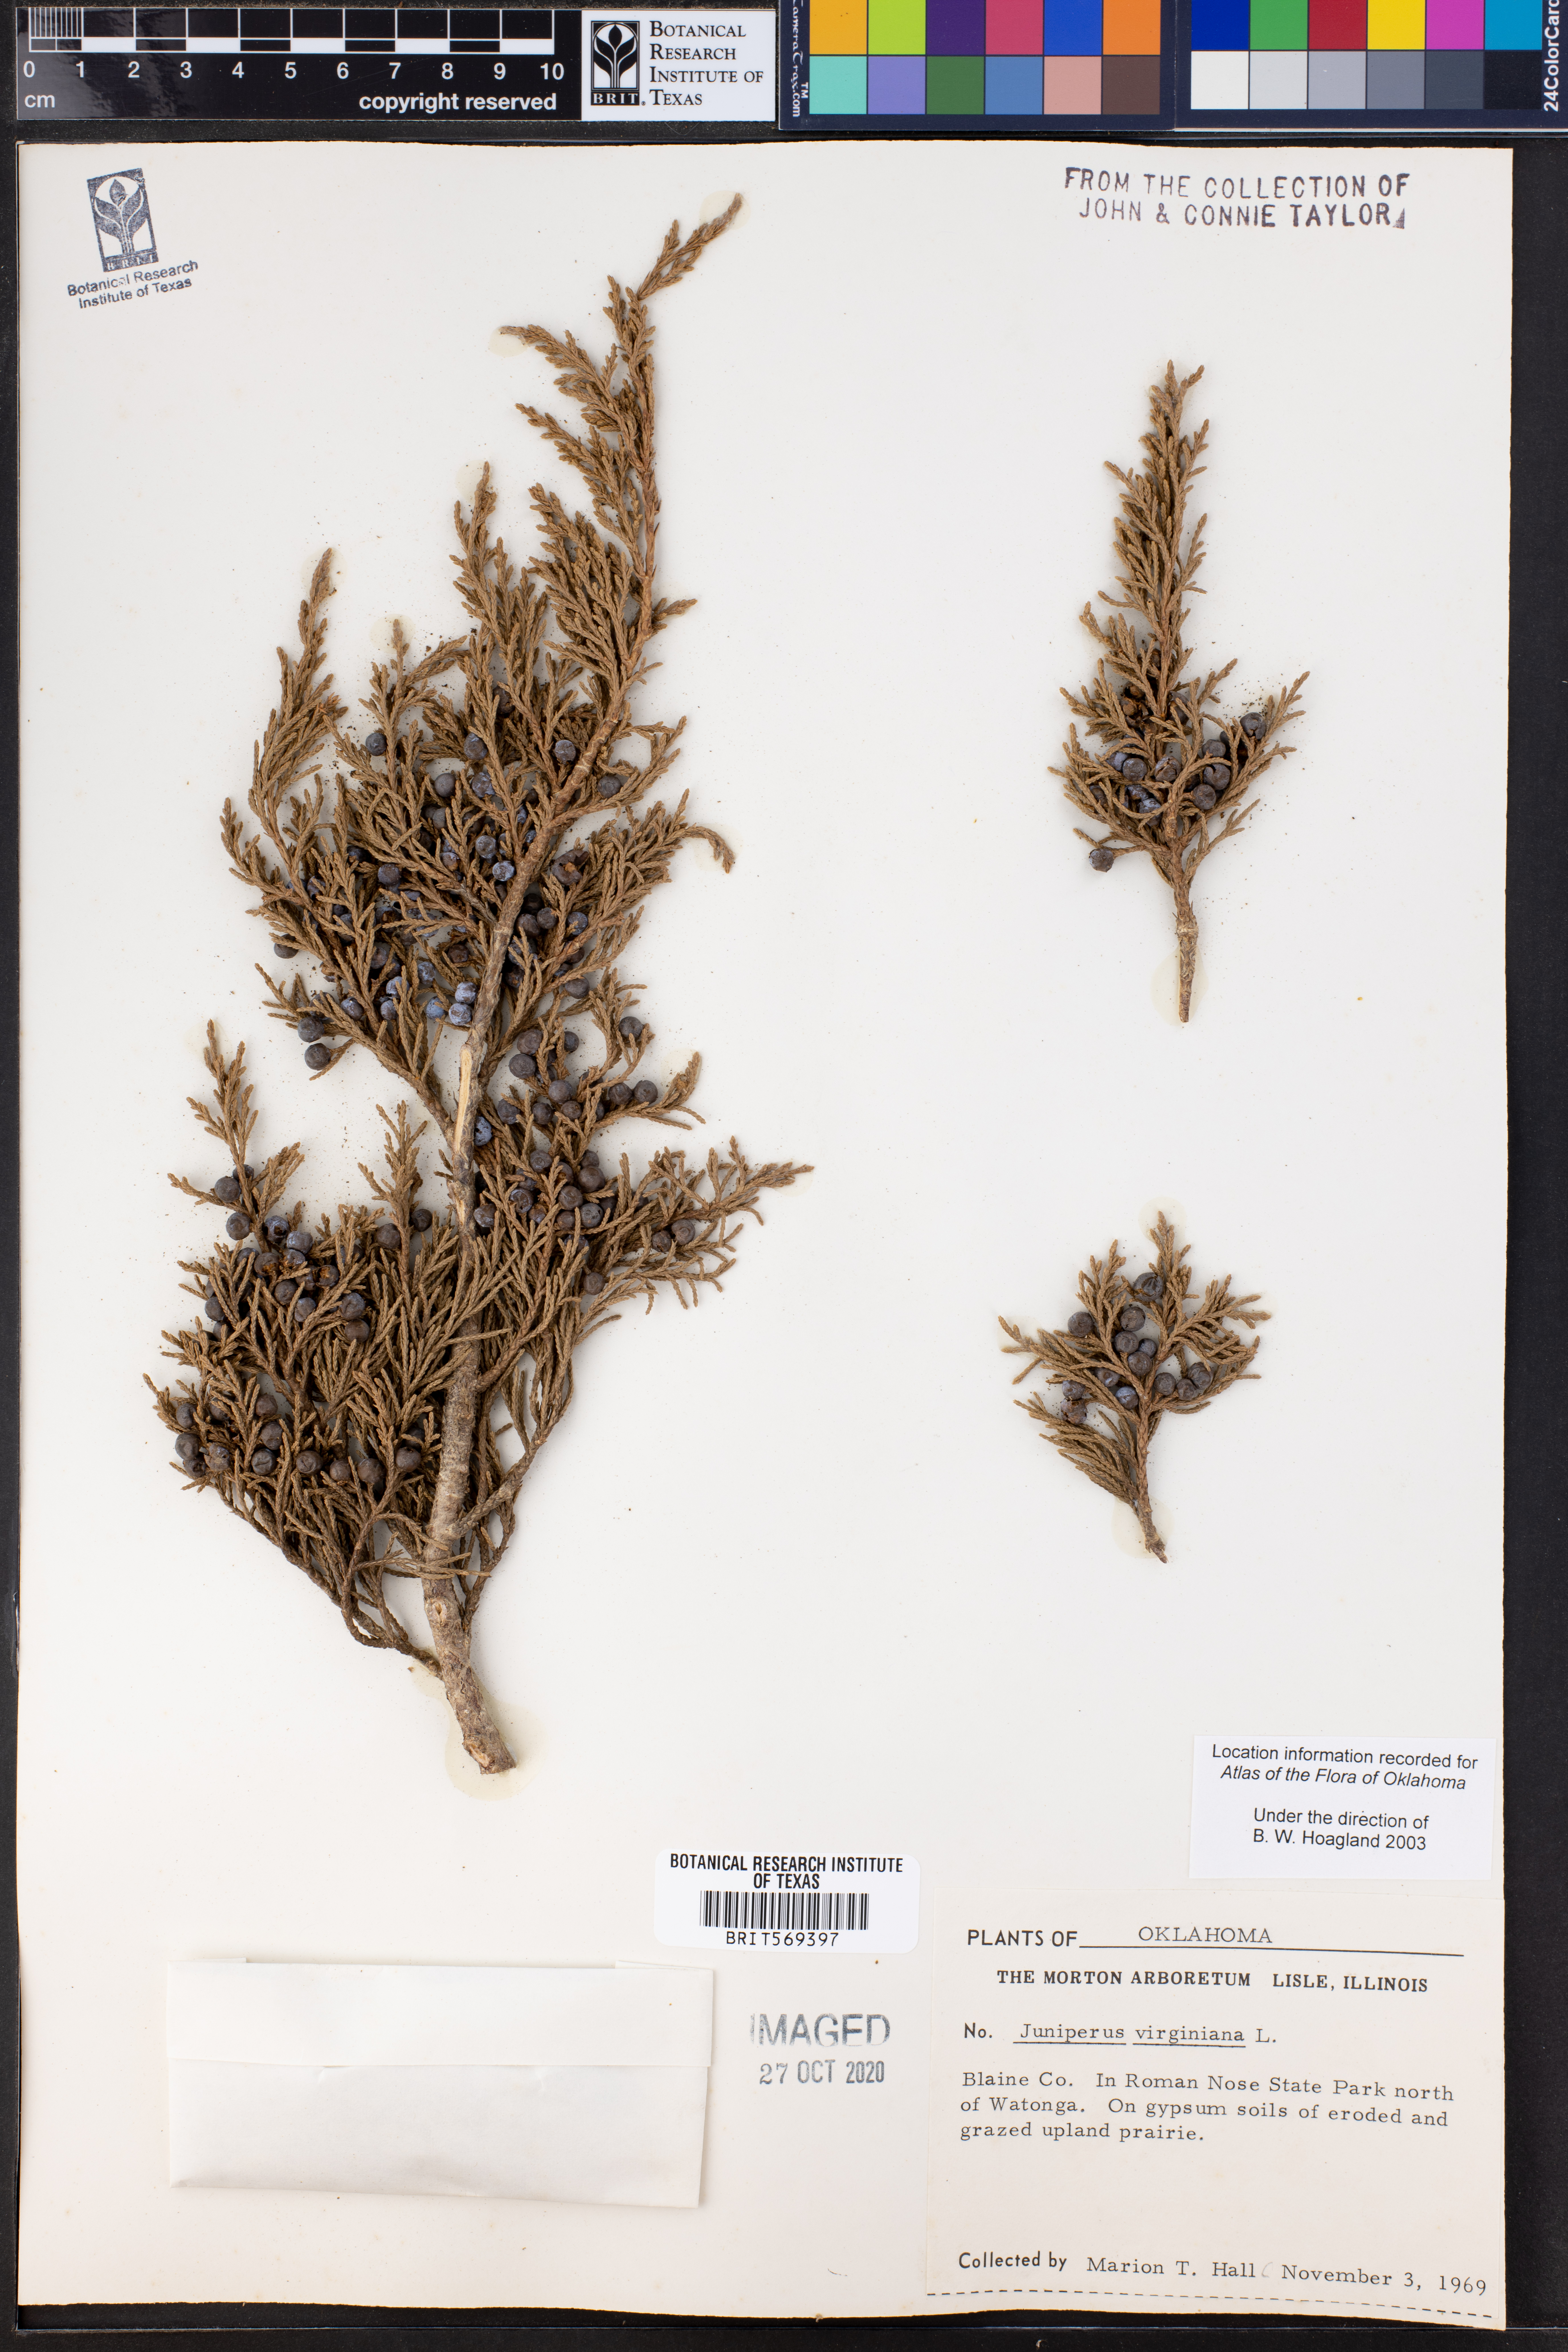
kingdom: Plantae
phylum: Tracheophyta
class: Pinopsida
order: Pinales
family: Cupressaceae
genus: Juniperus
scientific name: Juniperus virginiana
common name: Red juniper
